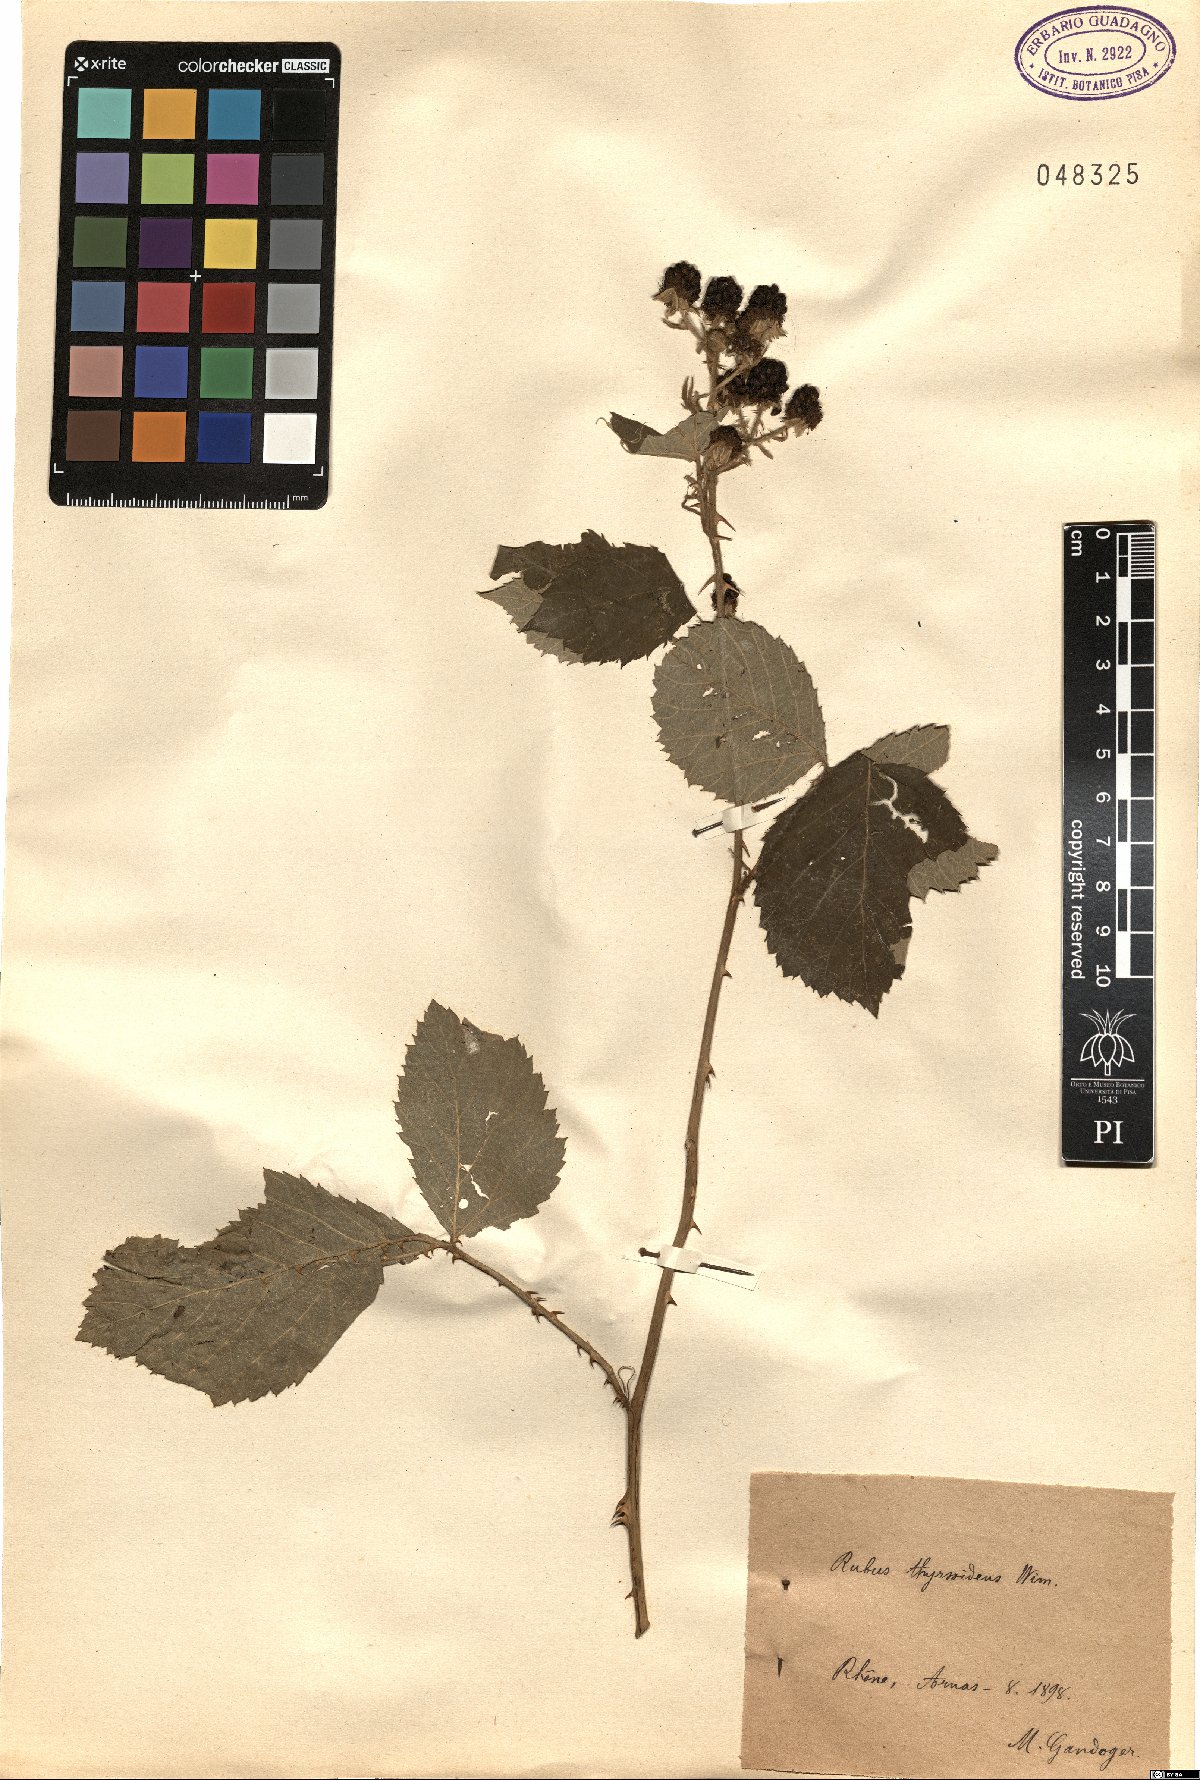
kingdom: Plantae
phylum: Tracheophyta
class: Magnoliopsida
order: Rosales
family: Rosaceae
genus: Rubus
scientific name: Rubus thyrsoideus
